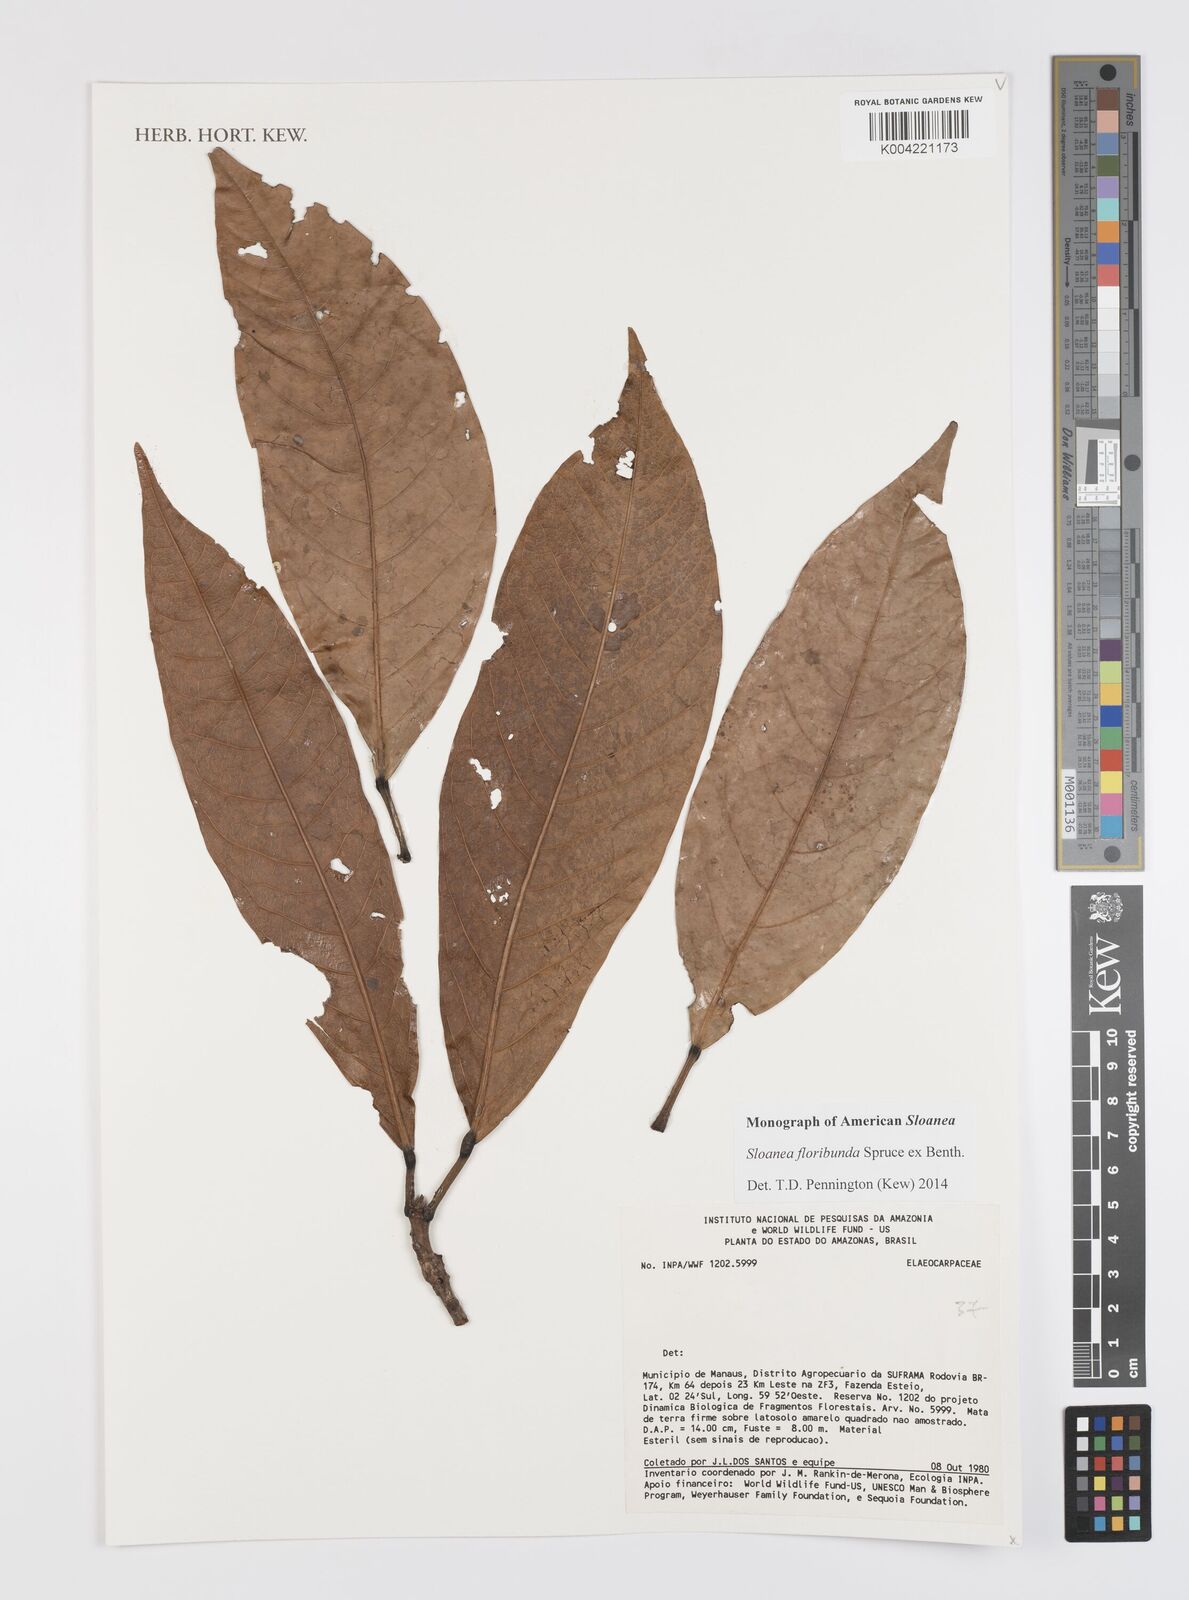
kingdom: Plantae
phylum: Tracheophyta
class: Magnoliopsida
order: Oxalidales
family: Elaeocarpaceae
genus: Sloanea
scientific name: Sloanea floribunda
